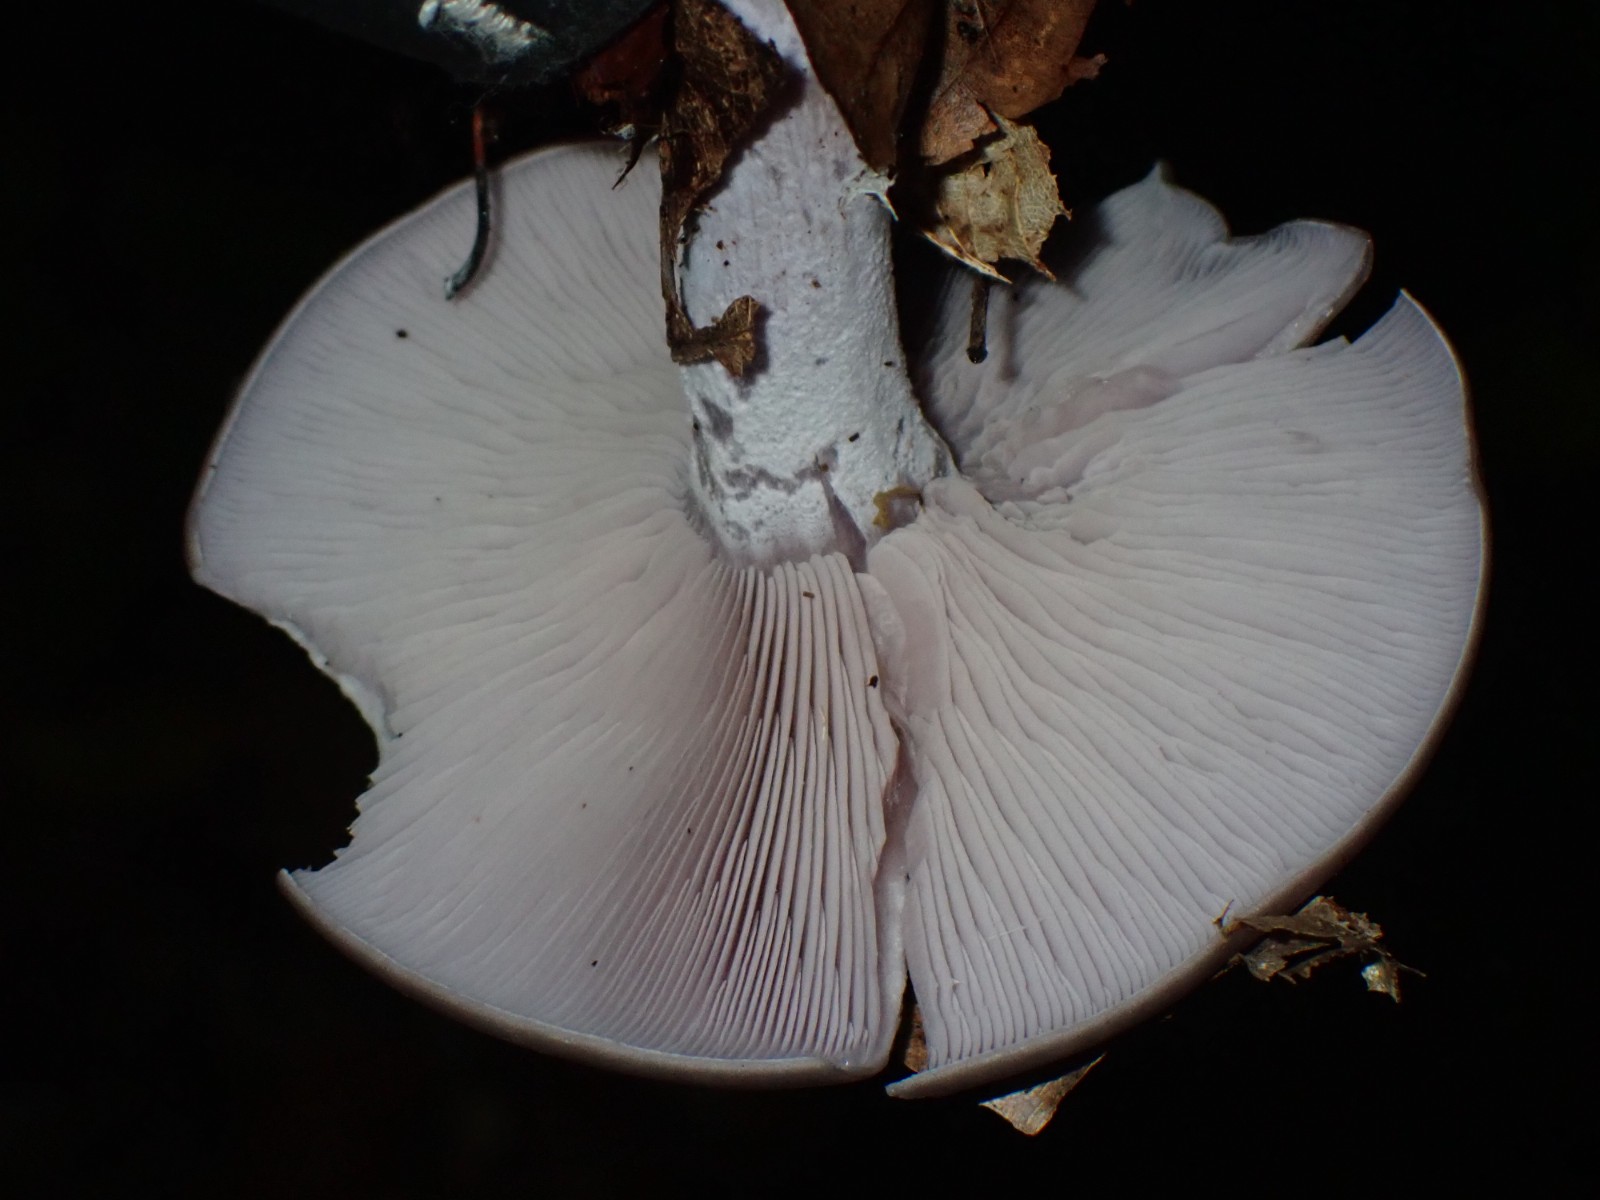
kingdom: Fungi
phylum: Basidiomycota
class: Agaricomycetes
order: Agaricales
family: Tricholomataceae
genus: Lepista
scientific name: Lepista nuda
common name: violet hekseringshat
